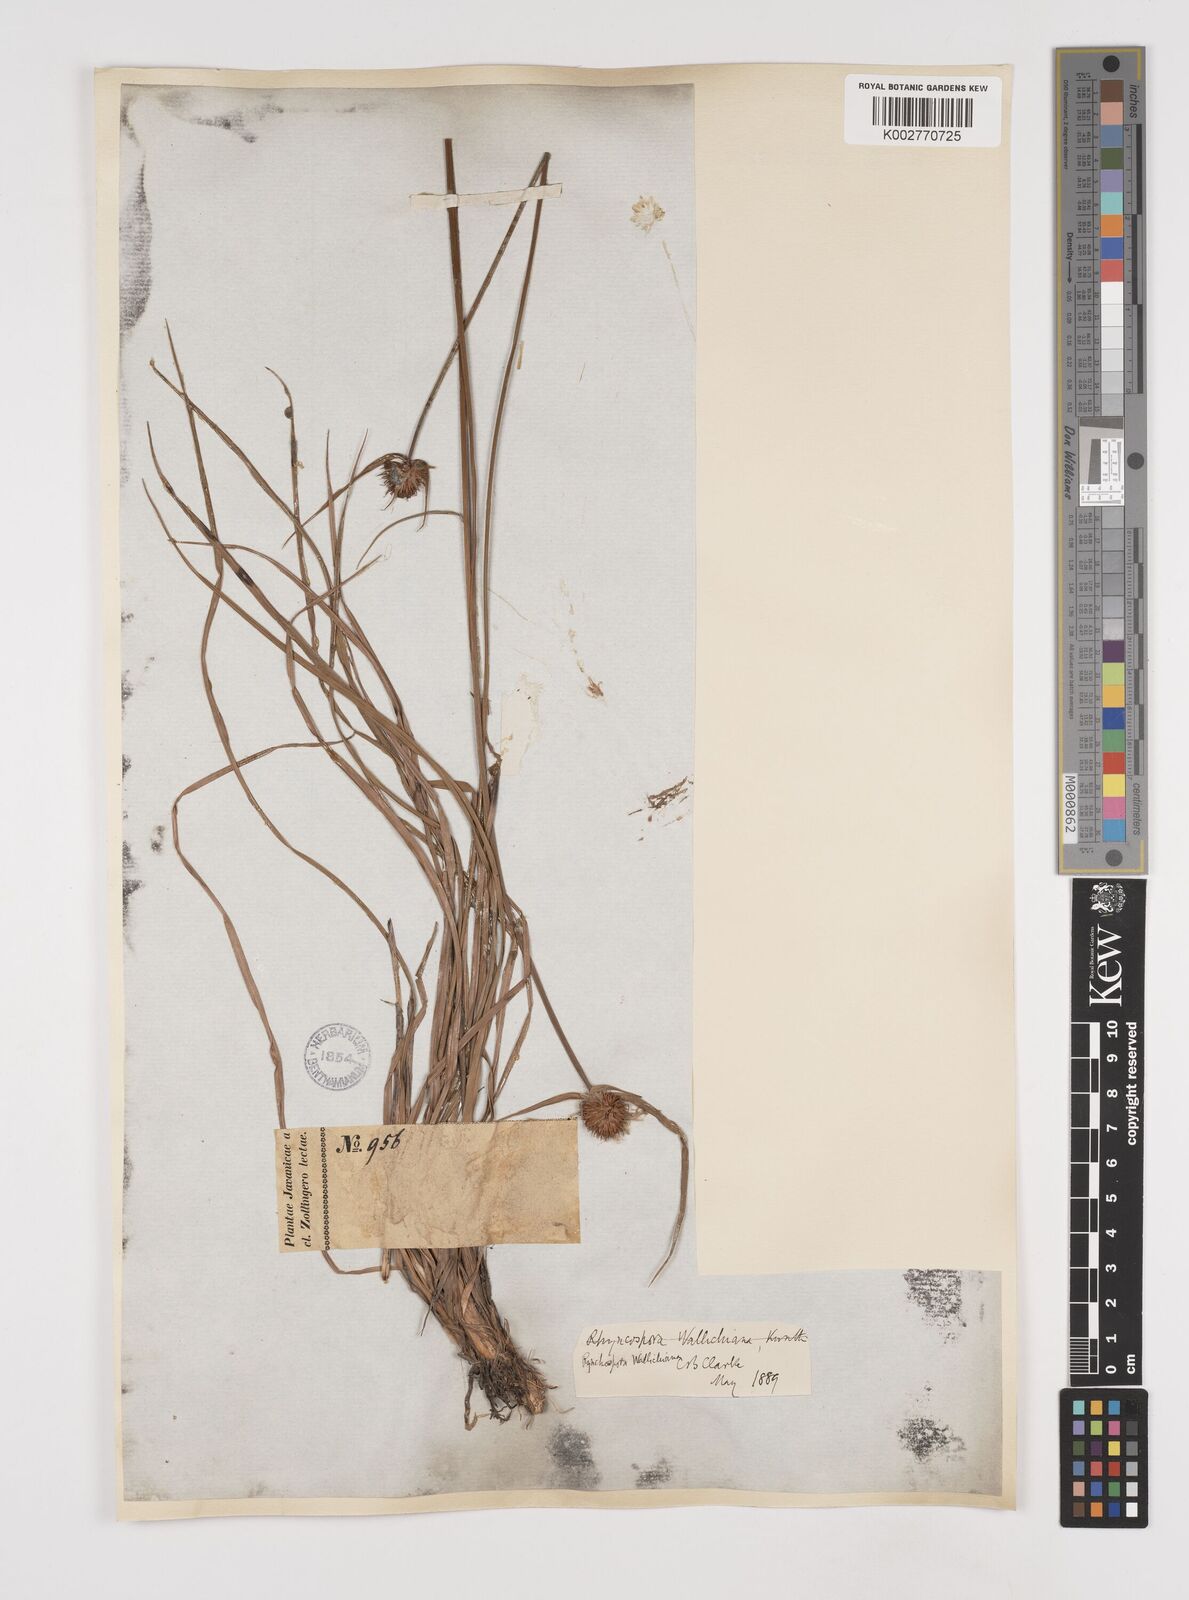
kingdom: Plantae
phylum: Tracheophyta
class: Liliopsida
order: Poales
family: Cyperaceae
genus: Rhynchospora
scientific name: Rhynchospora rubra
